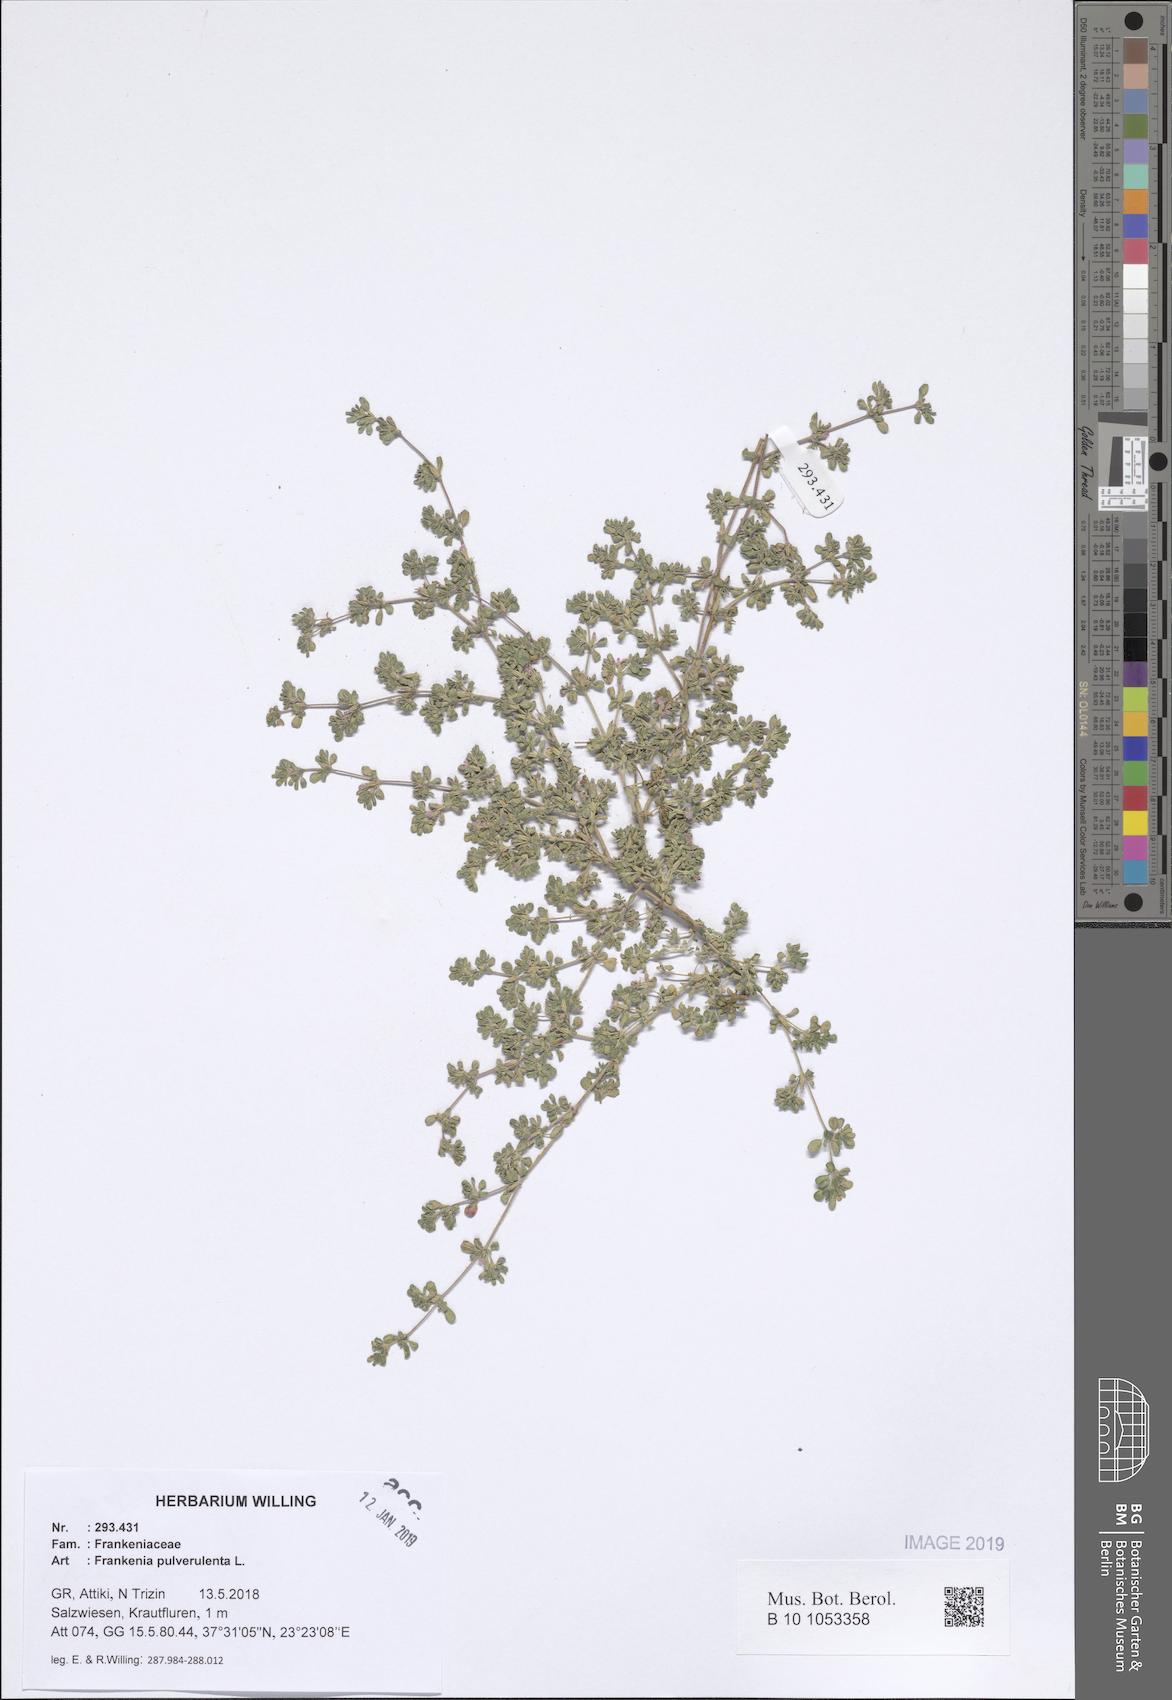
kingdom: Plantae
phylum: Tracheophyta
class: Magnoliopsida
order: Caryophyllales
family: Frankeniaceae
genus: Frankenia
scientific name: Frankenia pulverulenta
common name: European seaheath
